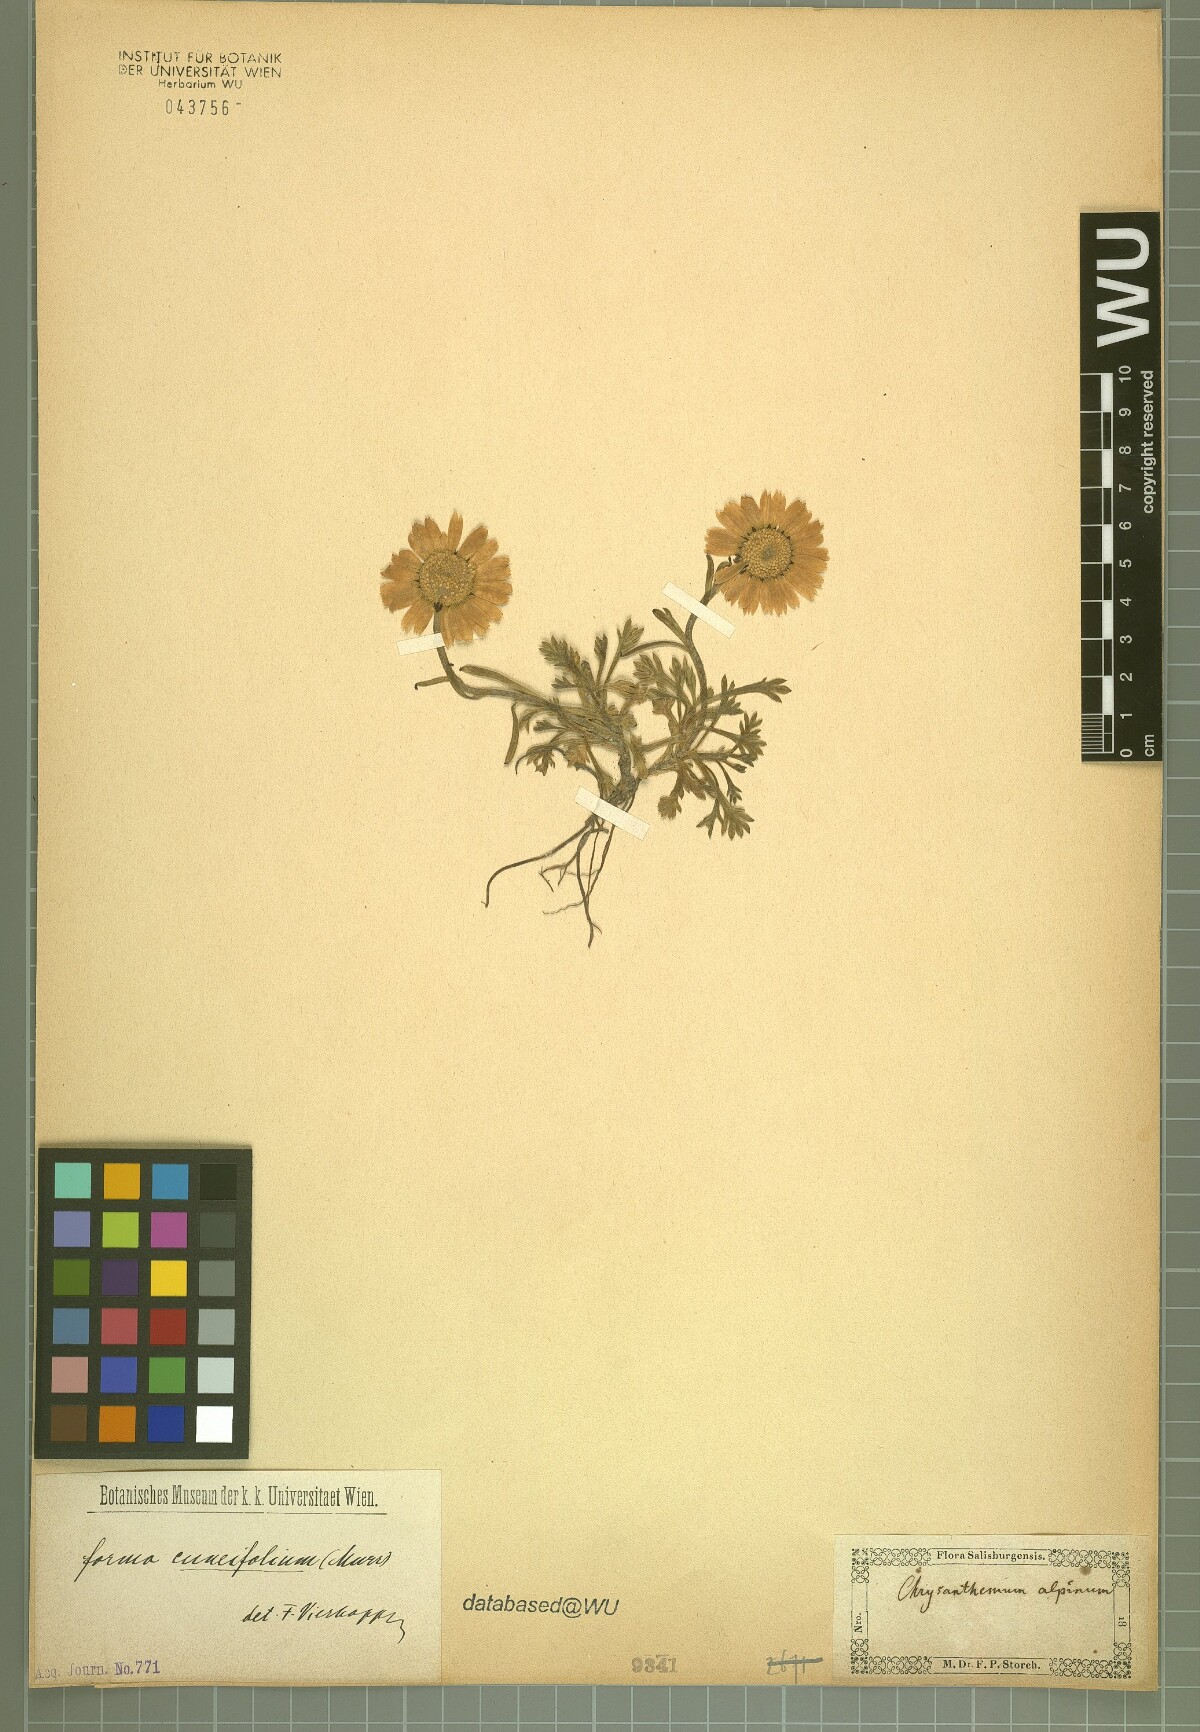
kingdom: Plantae
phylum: Tracheophyta
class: Magnoliopsida
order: Asterales
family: Asteraceae
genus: Leucanthemopsis
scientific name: Leucanthemopsis alpina
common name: Alpine moon daisy
